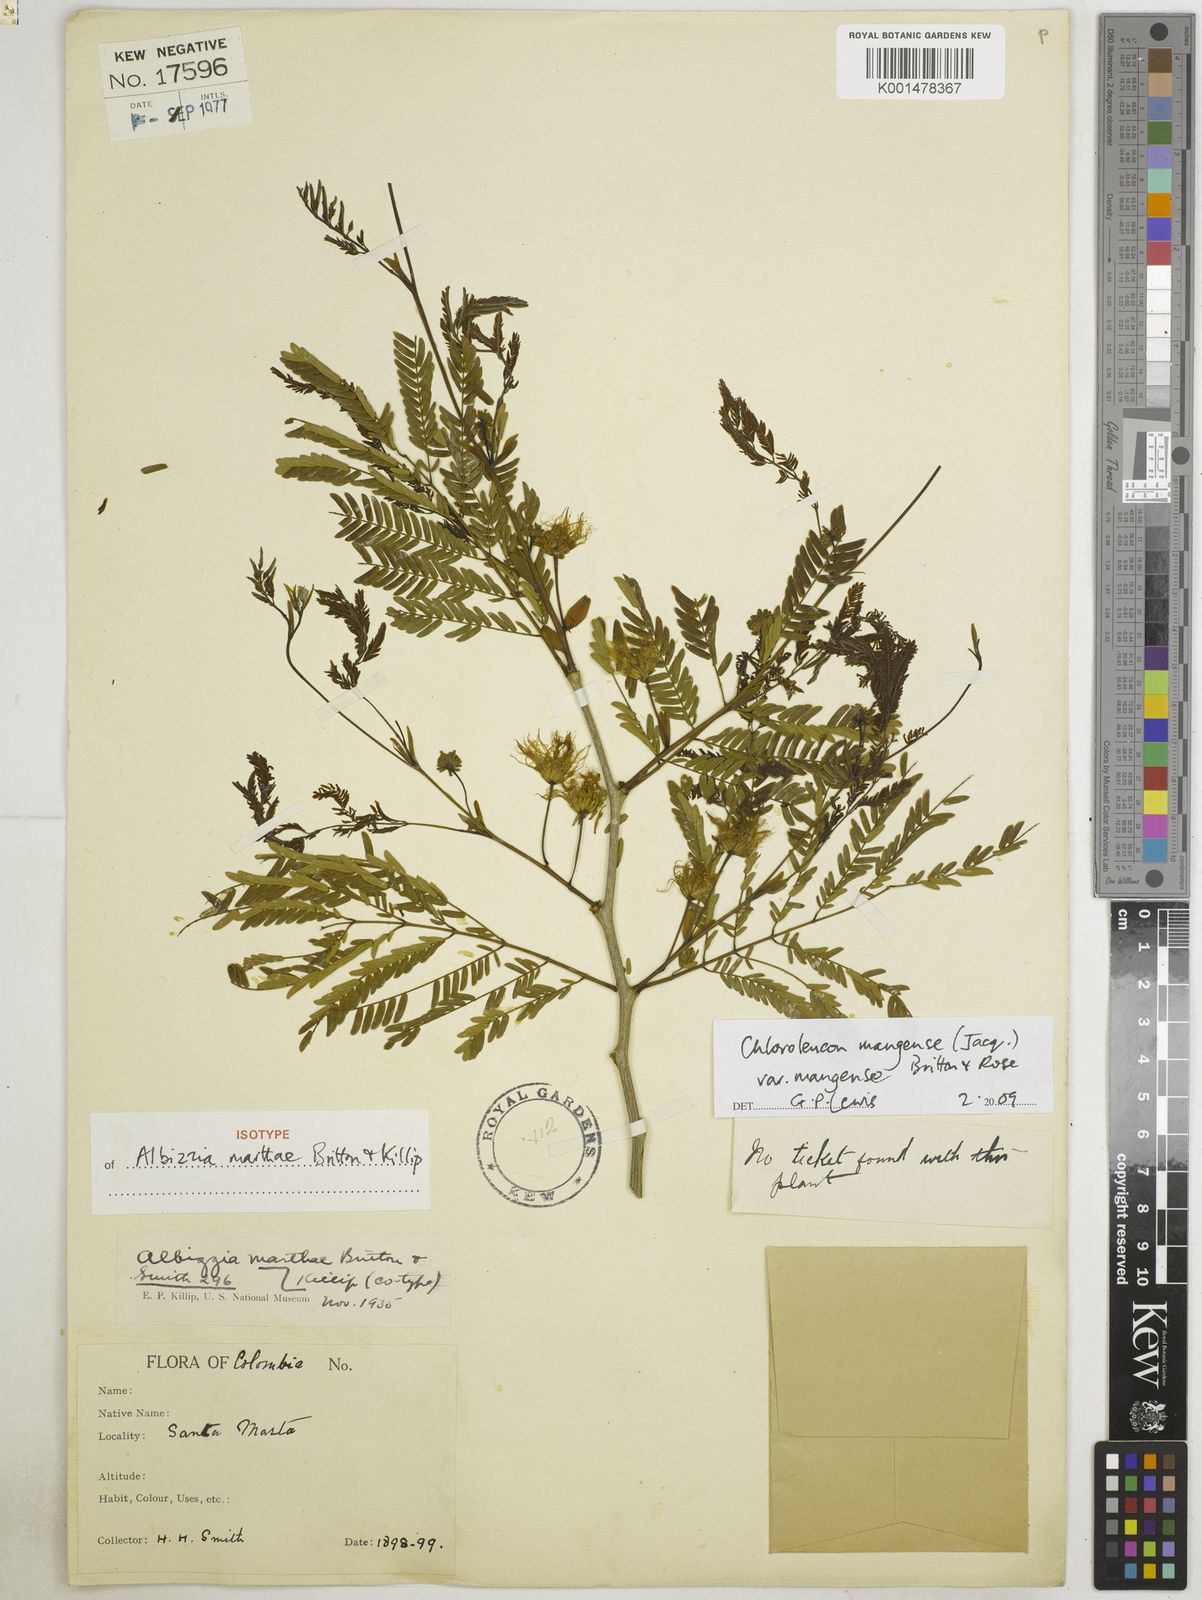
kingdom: Plantae
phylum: Tracheophyta
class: Magnoliopsida
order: Fabales
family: Fabaceae
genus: Chloroleucon
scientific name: Chloroleucon mangense
